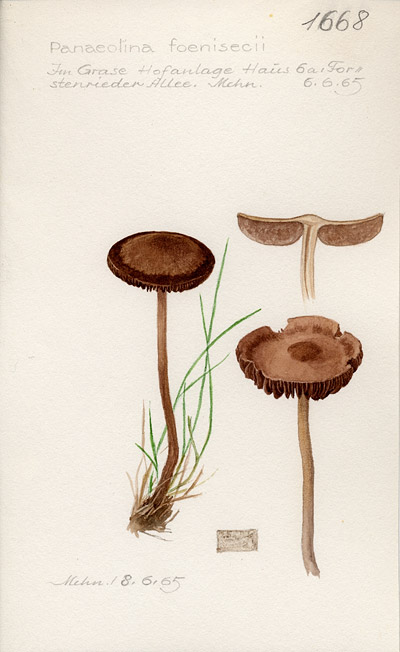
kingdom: Fungi
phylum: Basidiomycota
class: Agaricomycetes
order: Agaricales
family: Bolbitiaceae
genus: Panaeolina
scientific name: Panaeolina foenisecii
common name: Brown hay cap
